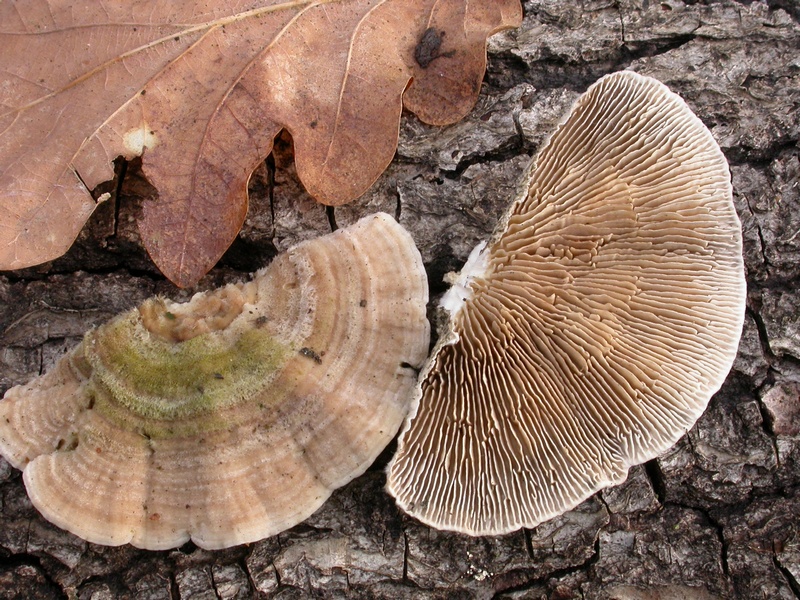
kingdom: Fungi
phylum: Basidiomycota
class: Agaricomycetes
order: Polyporales
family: Polyporaceae
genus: Lenzites
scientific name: Lenzites betulinus
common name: birke-læderporesvamp
